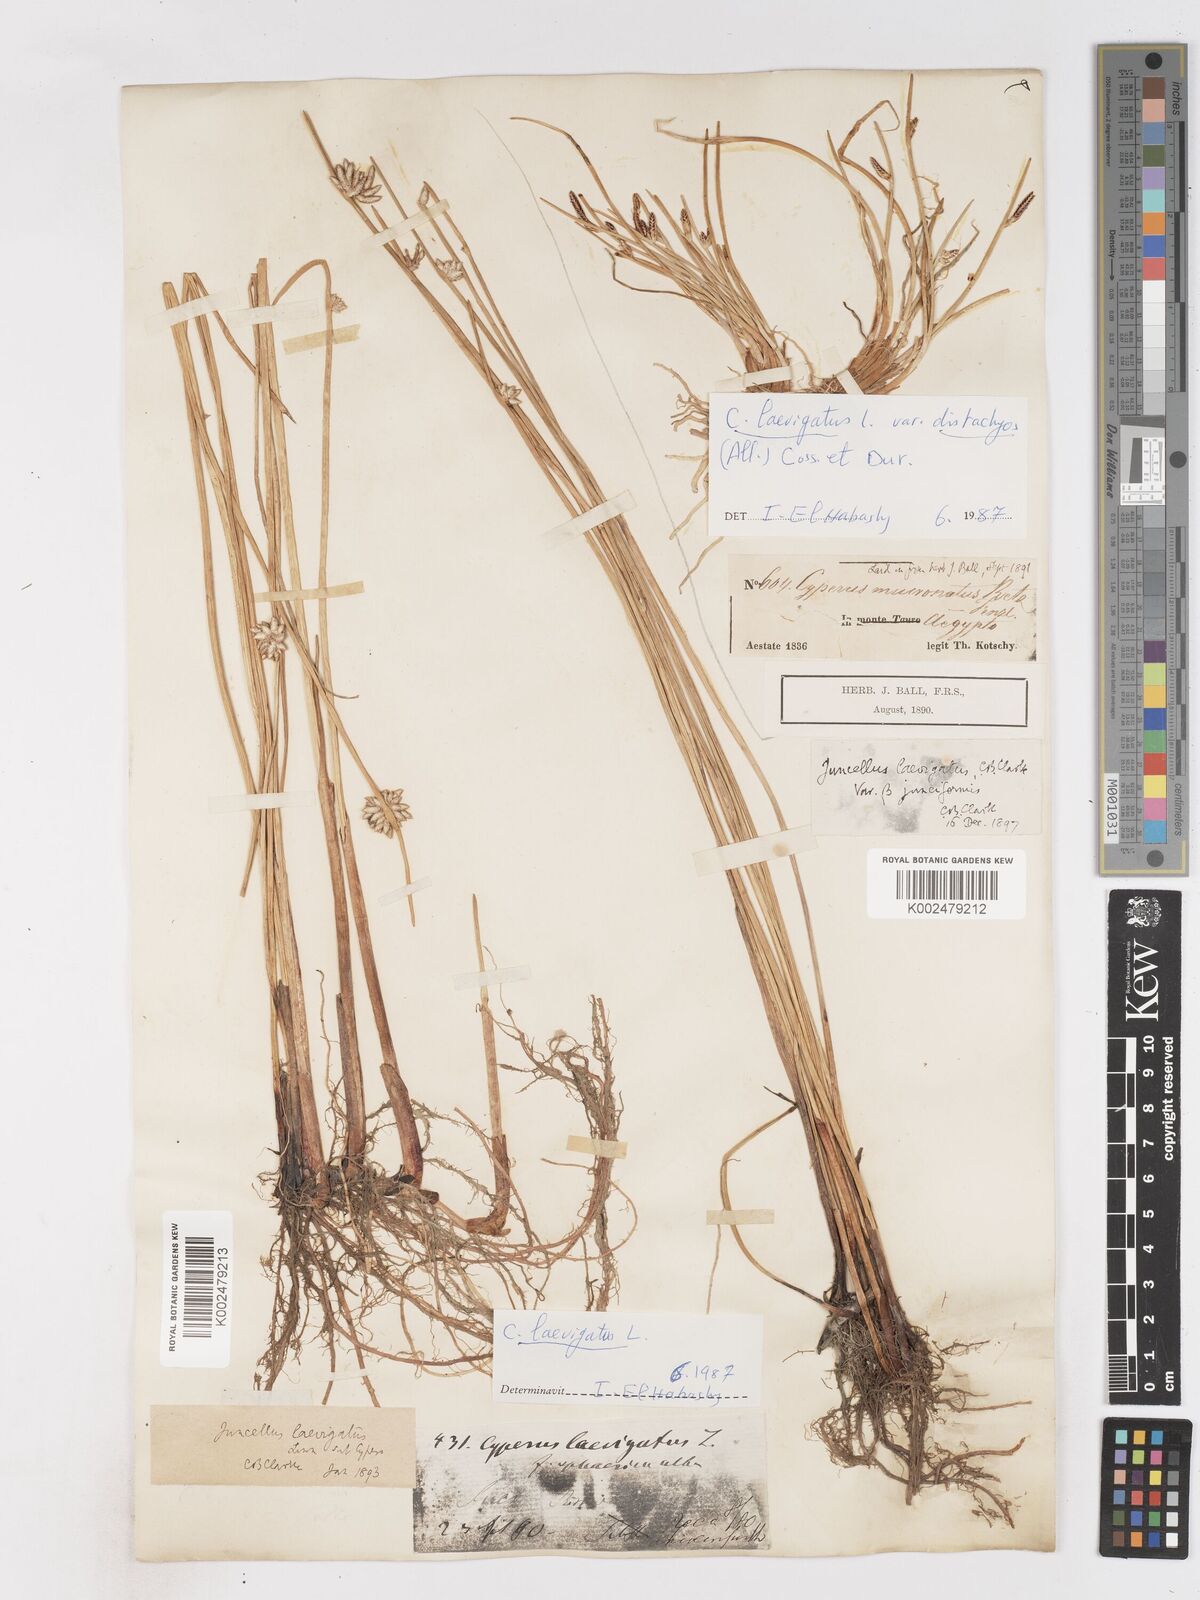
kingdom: Plantae
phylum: Tracheophyta
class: Liliopsida
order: Poales
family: Cyperaceae
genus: Cyperus
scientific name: Cyperus laevigatus
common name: Smooth flat sedge
